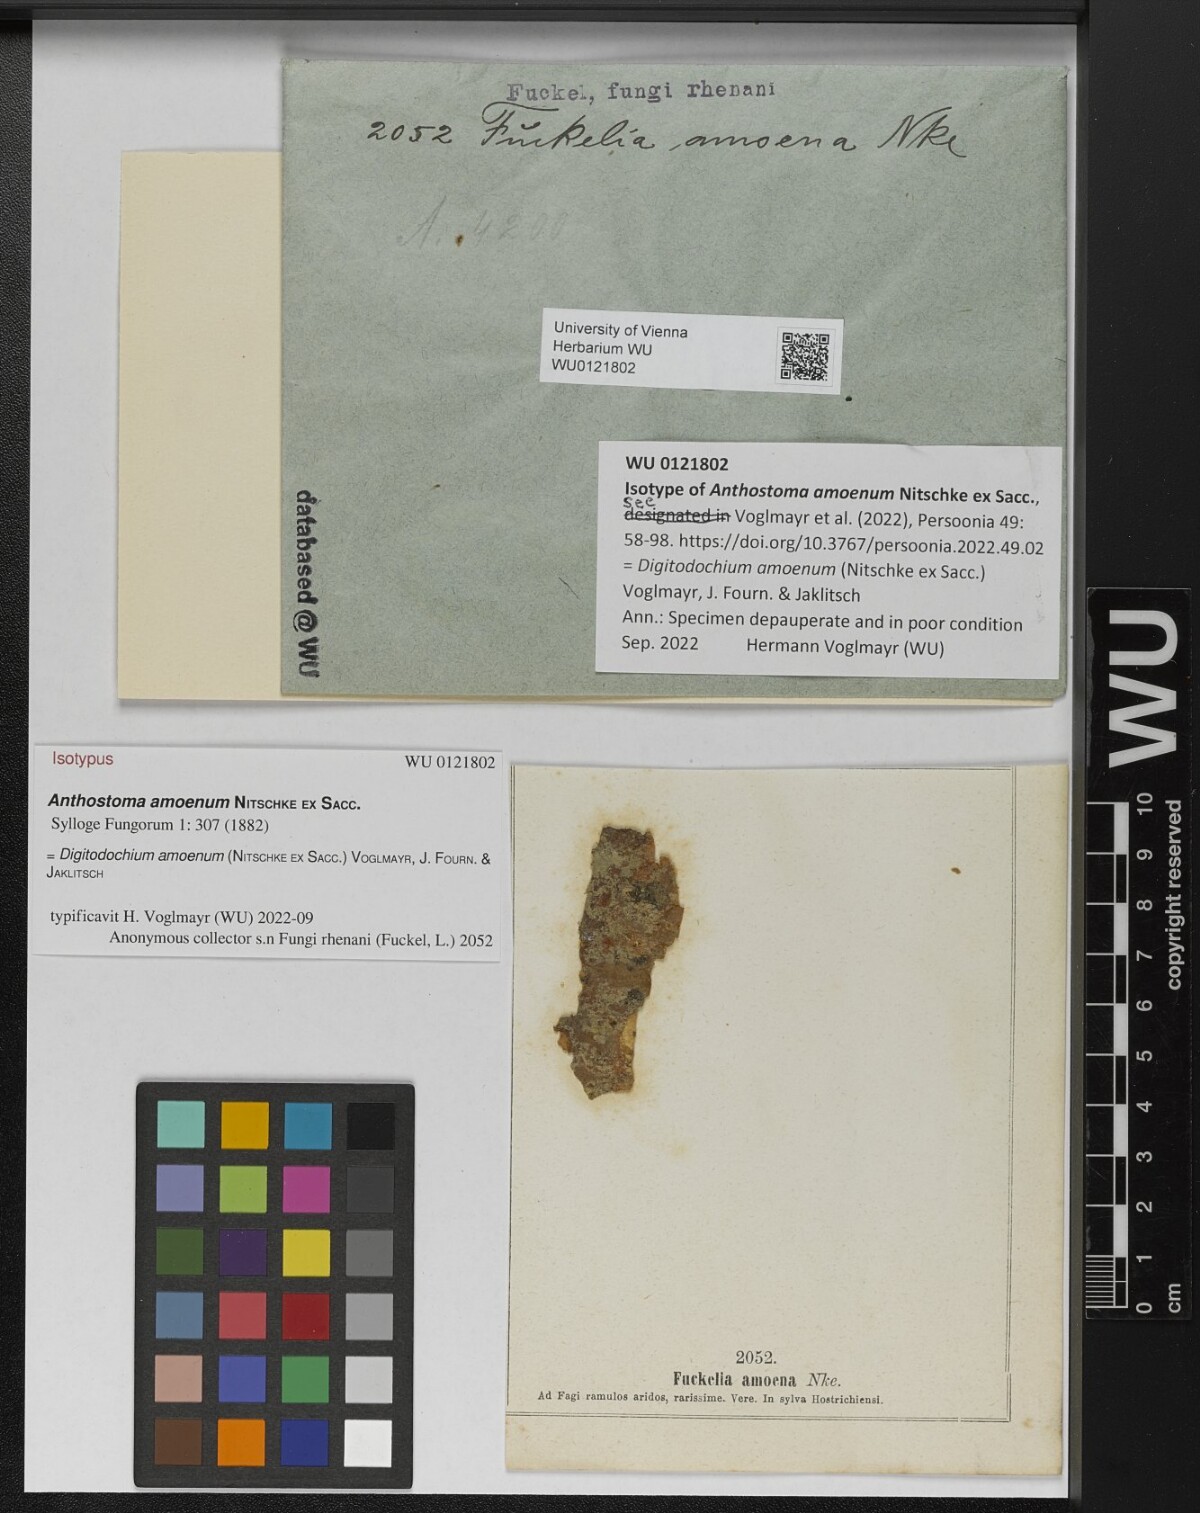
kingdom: Fungi
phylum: Ascomycota
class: Sordariomycetes
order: Xylariales
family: Xylariaceae
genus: Digitodochium
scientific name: Digitodochium amoenum
